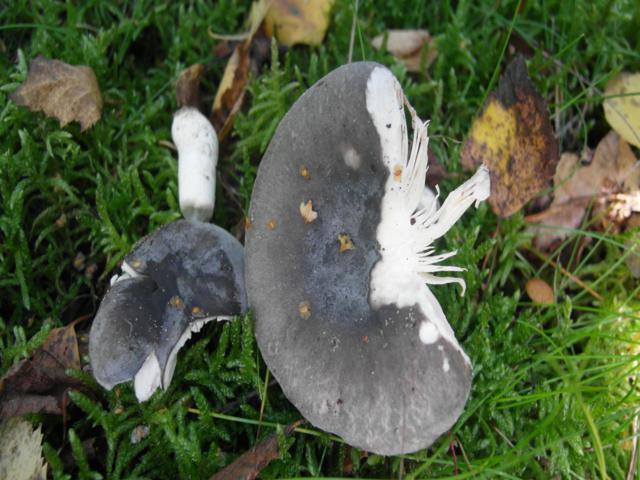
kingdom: Fungi
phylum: Basidiomycota
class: Agaricomycetes
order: Russulales
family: Russulaceae
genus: Russula
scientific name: Russula parazurea
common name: blågrå skørhat
